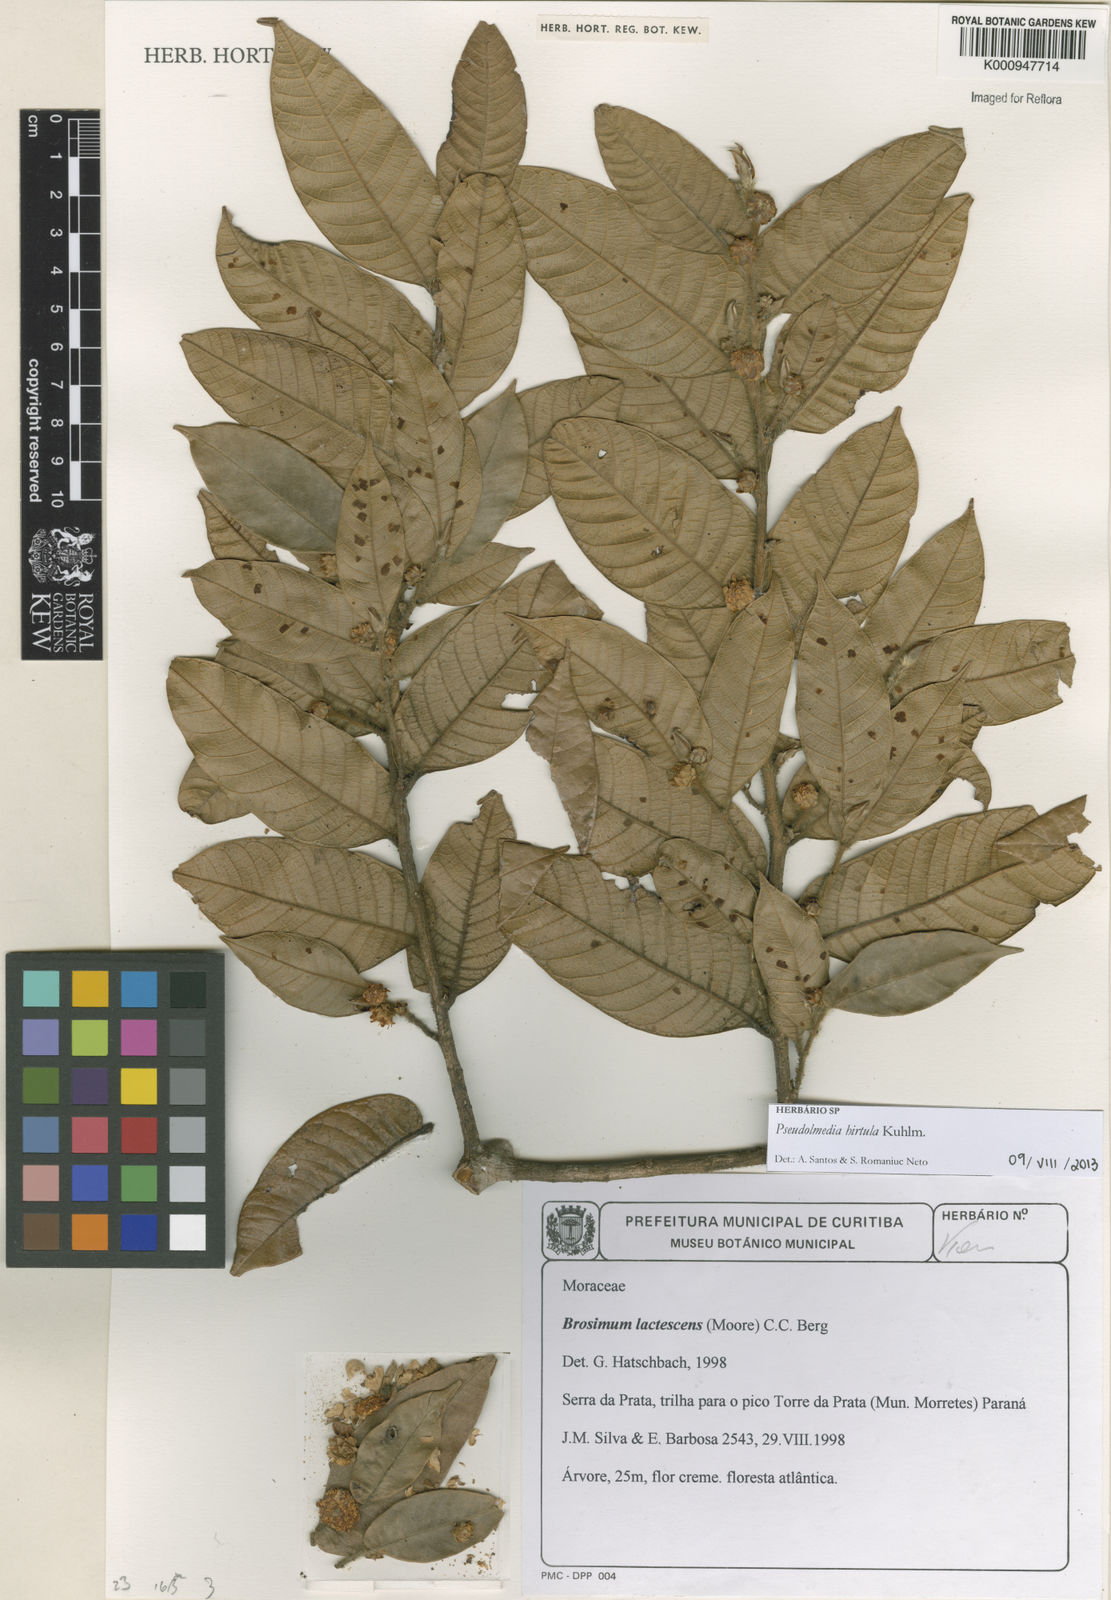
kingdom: Plantae
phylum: Tracheophyta
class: Magnoliopsida
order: Rosales
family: Moraceae
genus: Pseudolmedia
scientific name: Pseudolmedia hirtula
